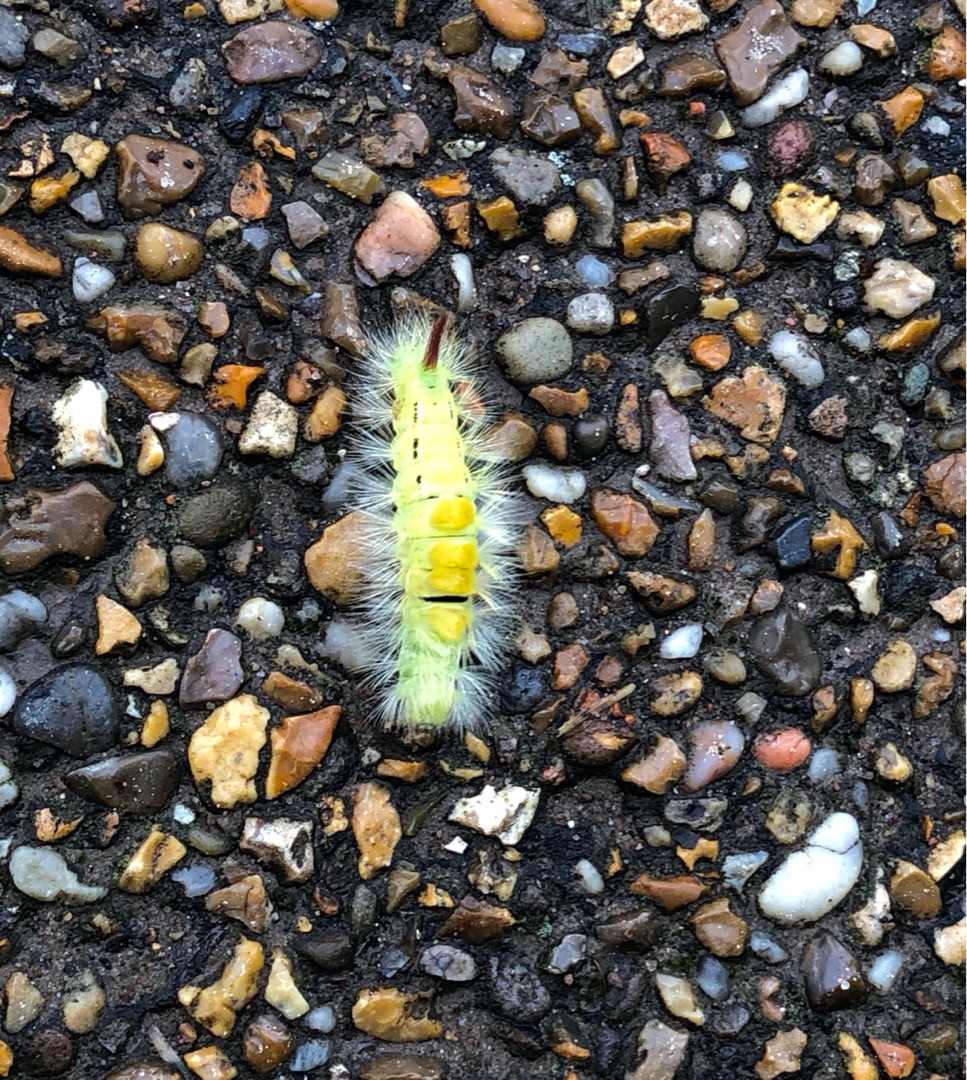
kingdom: Animalia
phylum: Arthropoda
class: Insecta
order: Lepidoptera
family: Erebidae
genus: Calliteara
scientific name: Calliteara pudibunda
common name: Bøgenonne
